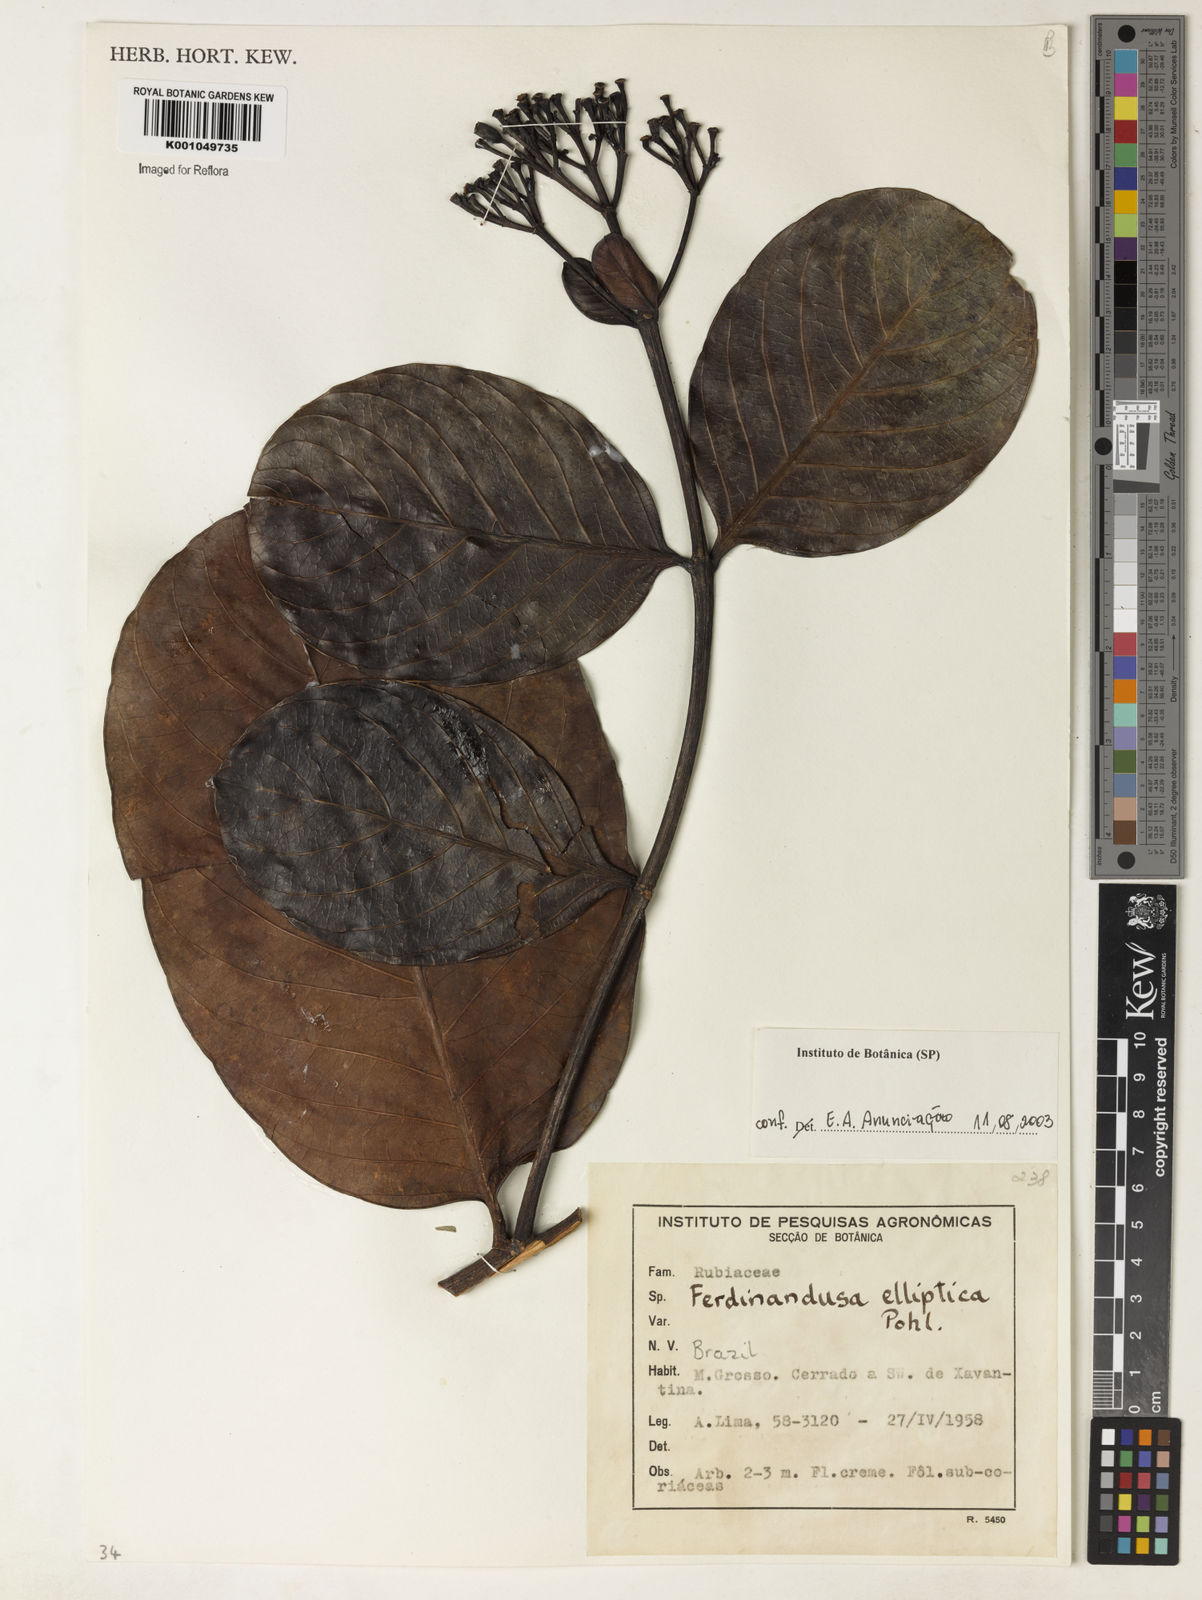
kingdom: Plantae
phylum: Tracheophyta
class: Magnoliopsida
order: Gentianales
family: Rubiaceae
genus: Ferdinandusa
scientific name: Ferdinandusa elliptica
